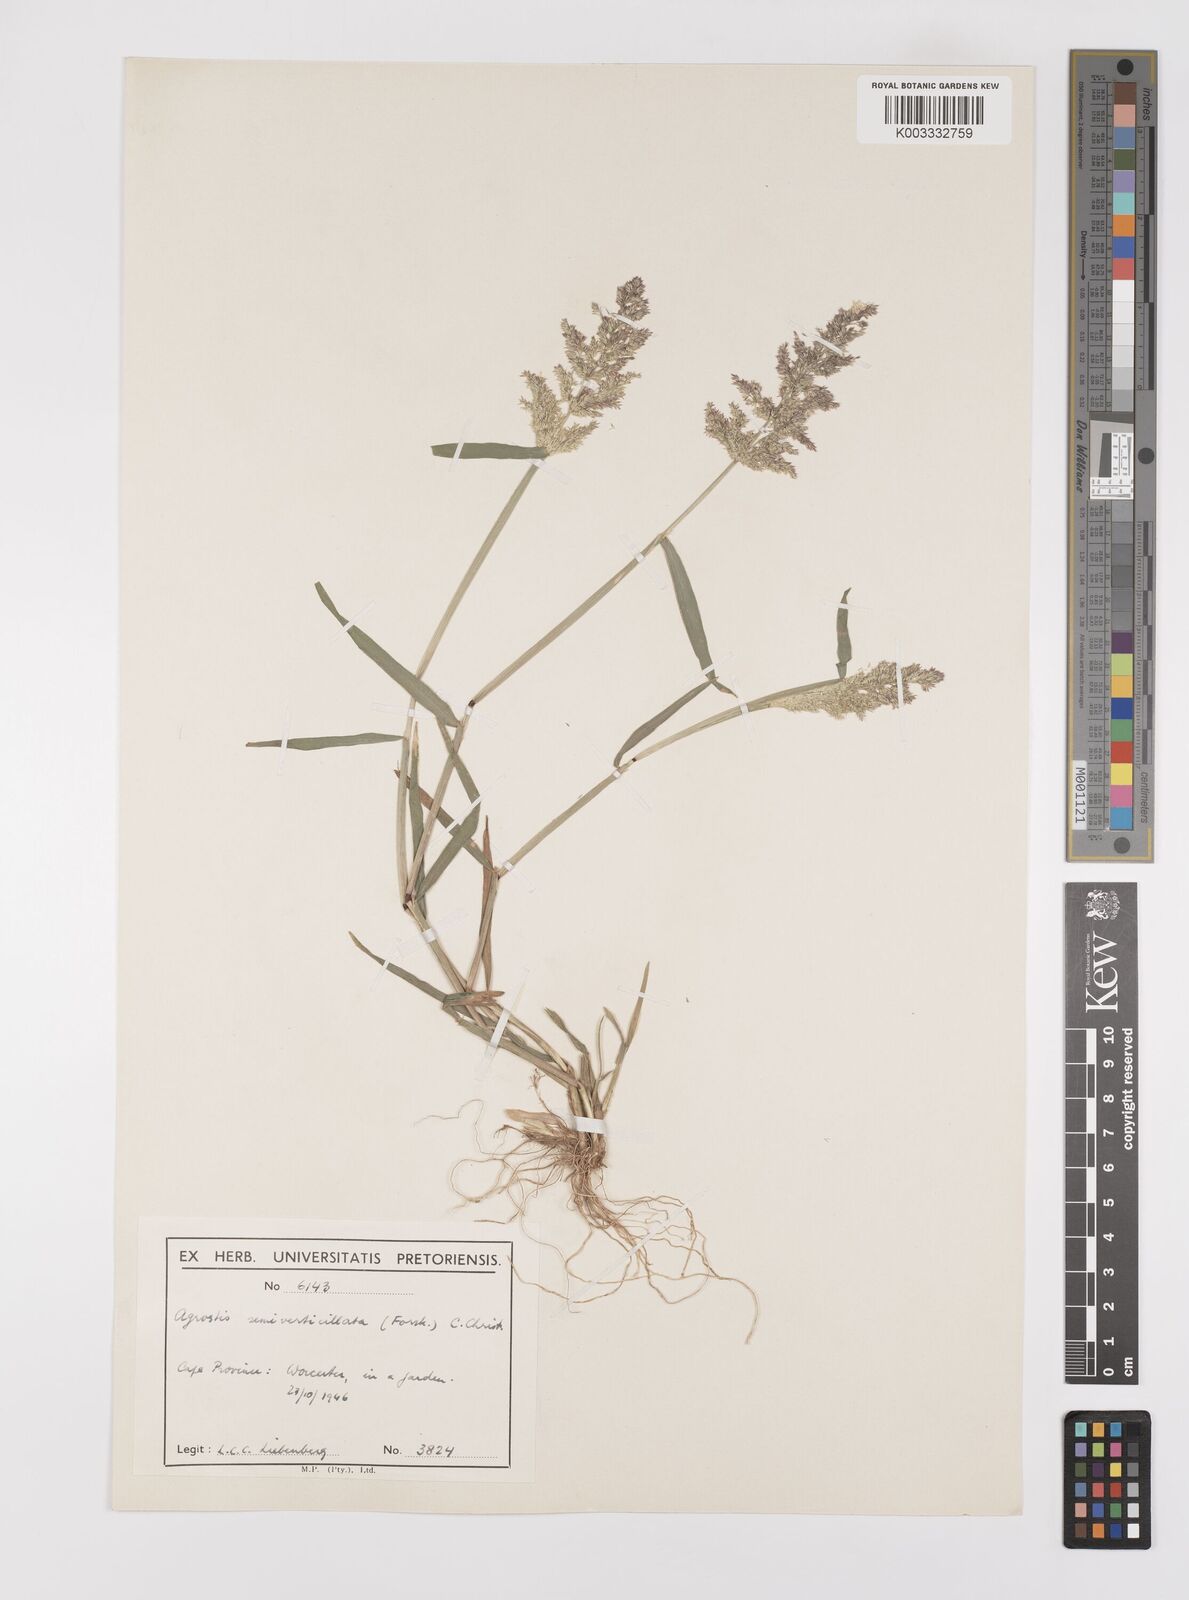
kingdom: Plantae
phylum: Tracheophyta
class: Liliopsida
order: Poales
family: Poaceae
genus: Polypogon
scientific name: Polypogon viridis
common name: Water bent
